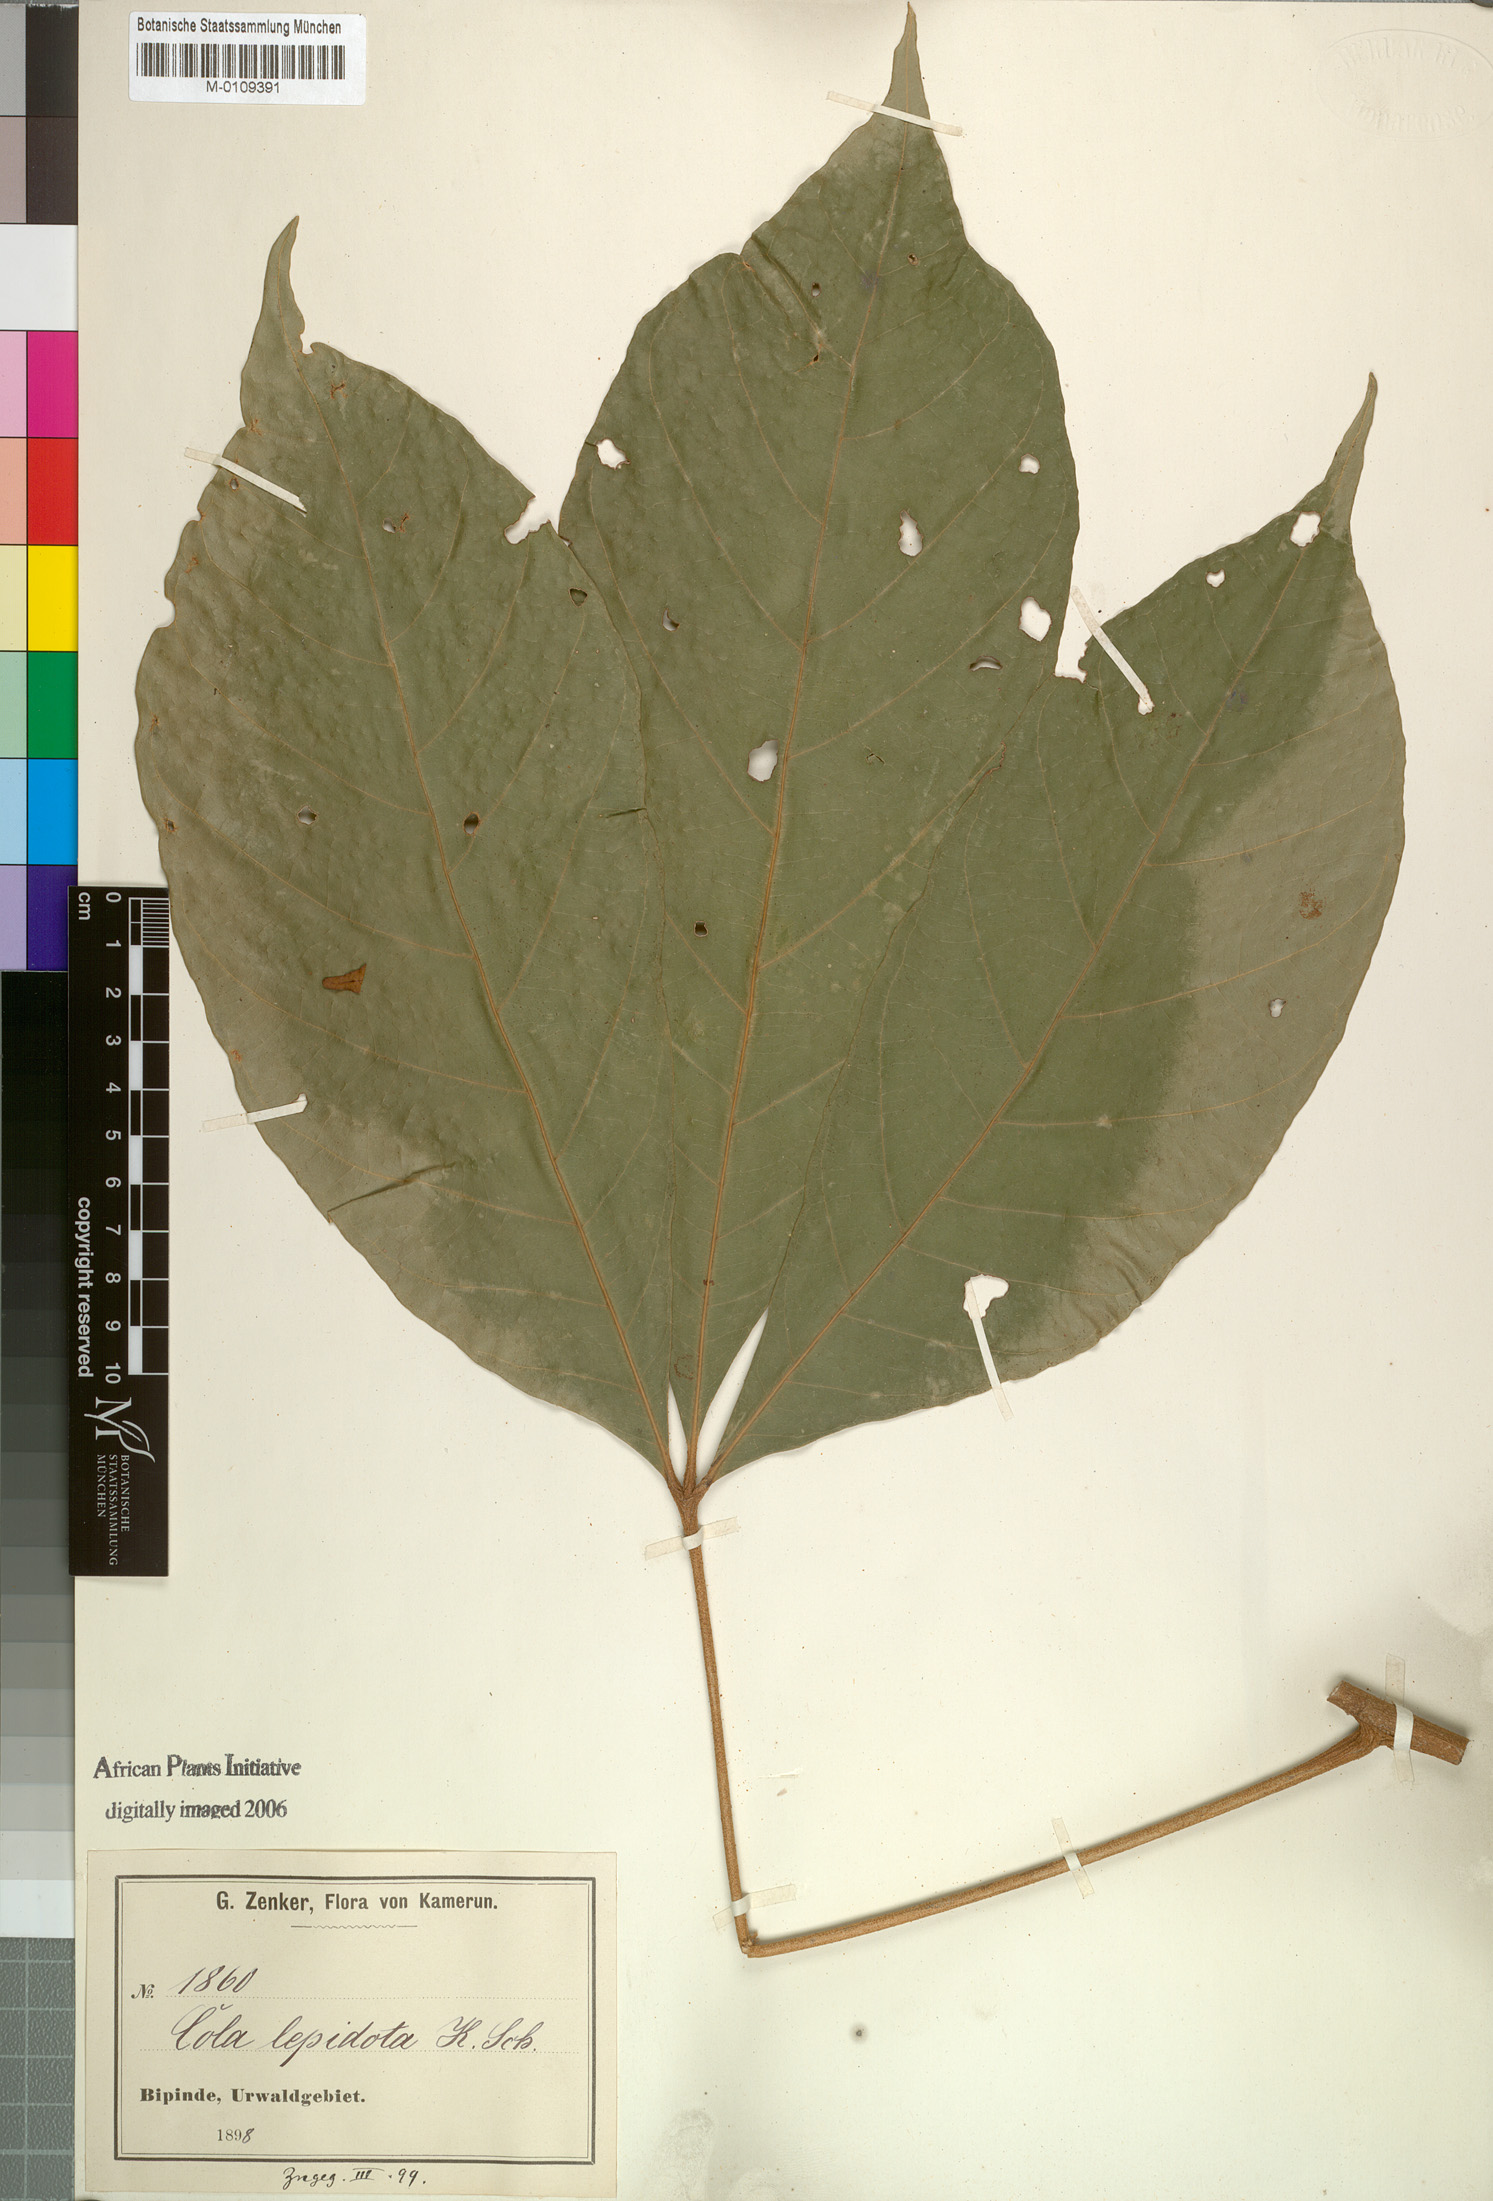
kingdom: Plantae
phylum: Tracheophyta
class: Magnoliopsida
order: Malvales
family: Malvaceae
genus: Cola
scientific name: Cola lepidota
